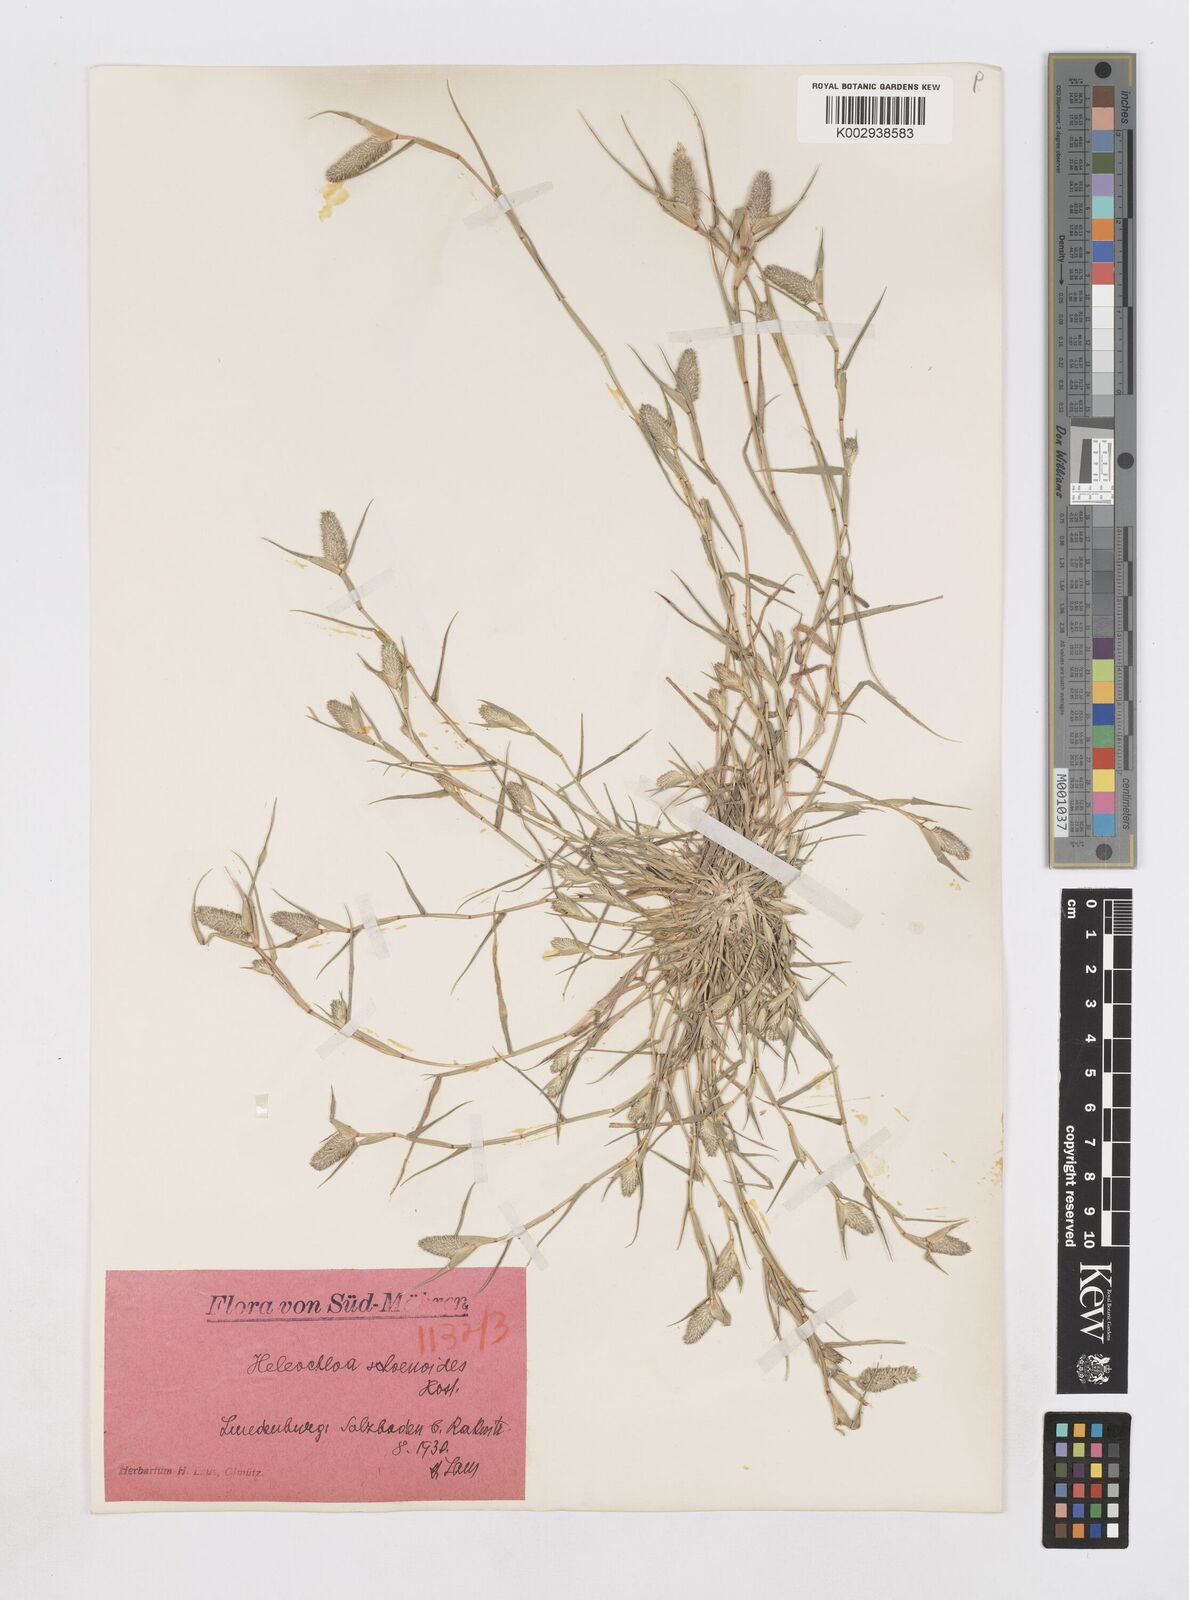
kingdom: Animalia
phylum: Arthropoda
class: Insecta
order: Coleoptera
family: Tenebrionidae
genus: Crypsis
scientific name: Crypsis
